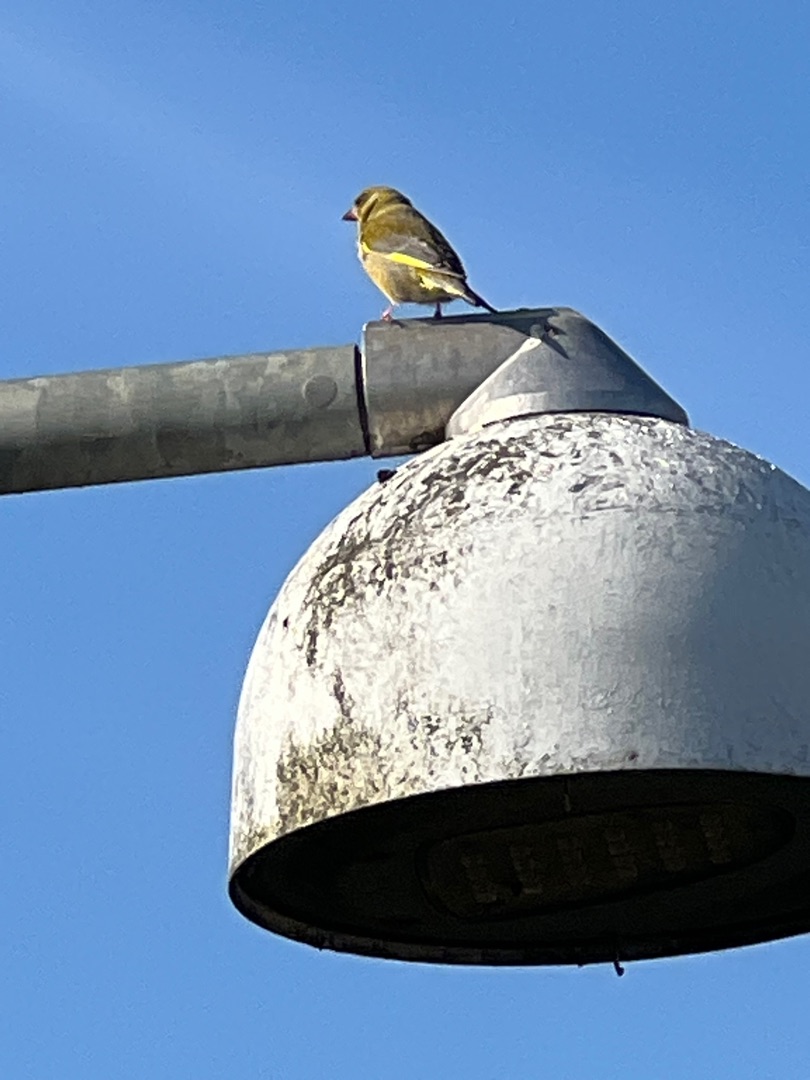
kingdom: Plantae
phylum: Tracheophyta
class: Liliopsida
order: Poales
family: Poaceae
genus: Chloris
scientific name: Chloris chloris
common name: Grønirisk
